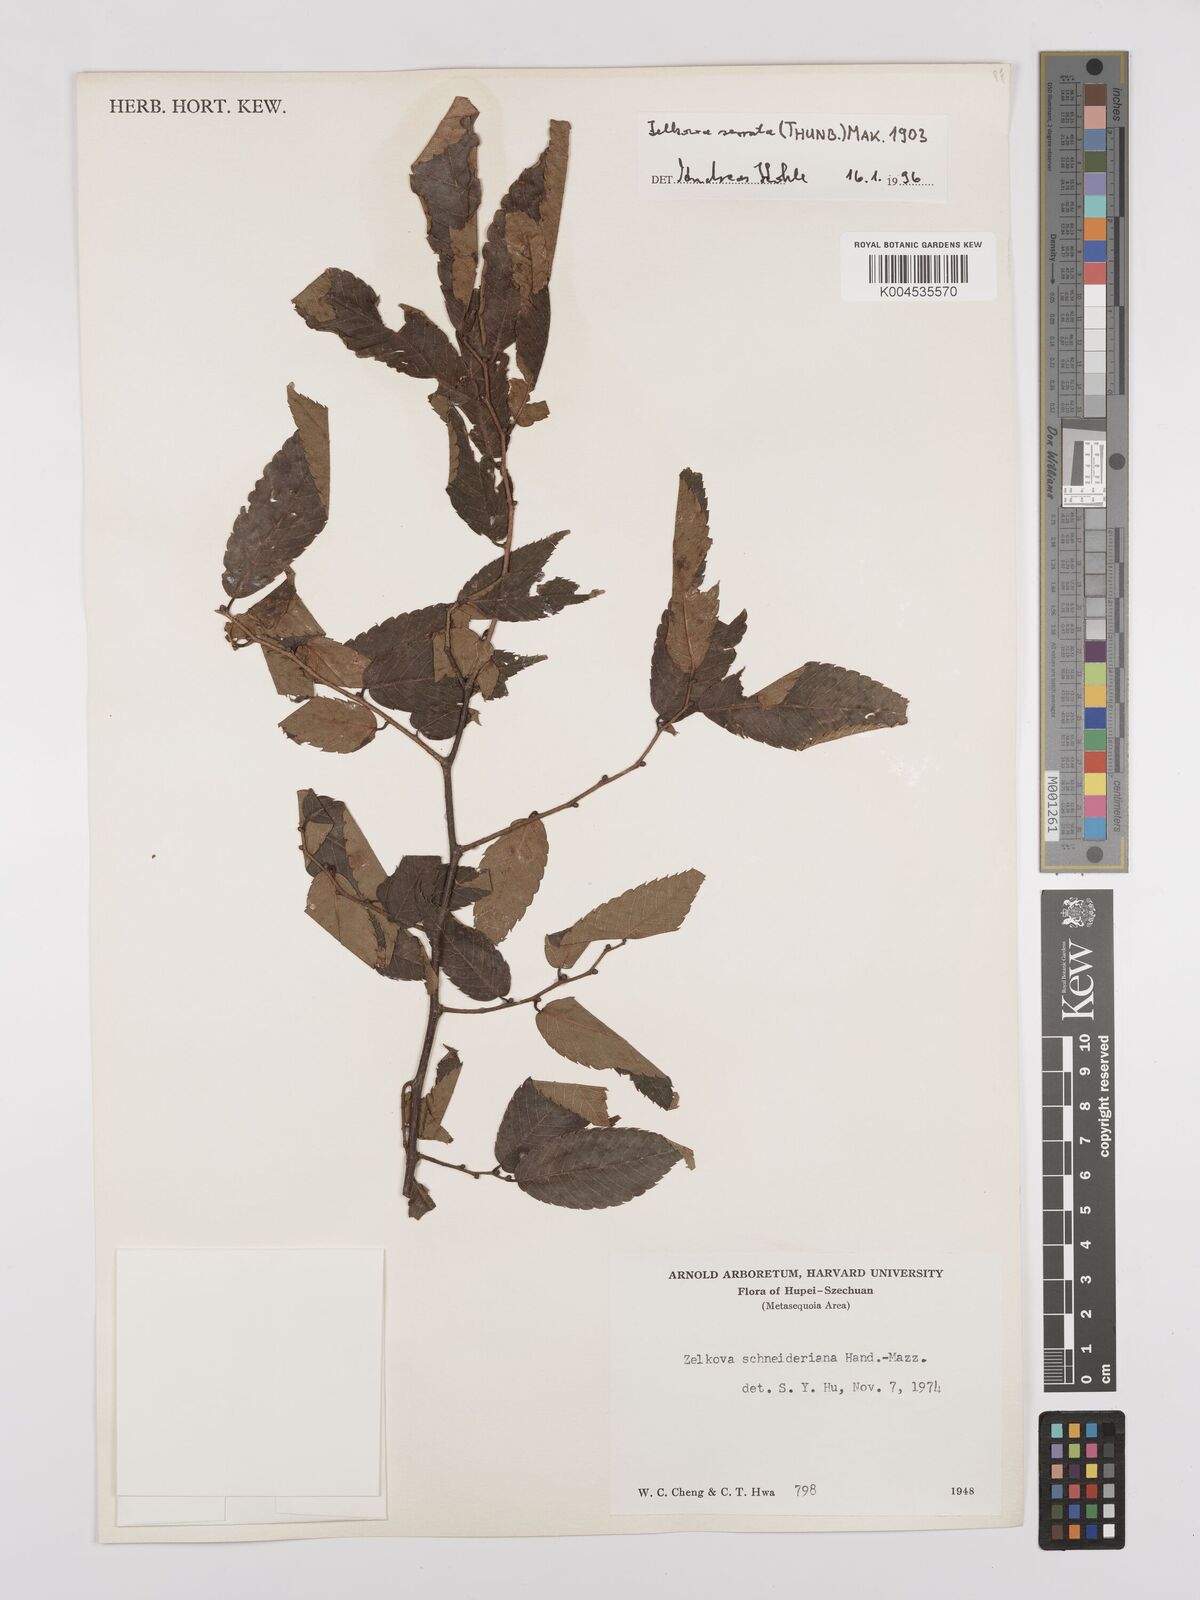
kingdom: Plantae
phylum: Tracheophyta
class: Magnoliopsida
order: Rosales
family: Ulmaceae
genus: Zelkova
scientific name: Zelkova schneideriana
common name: Schneider’s zelkova
